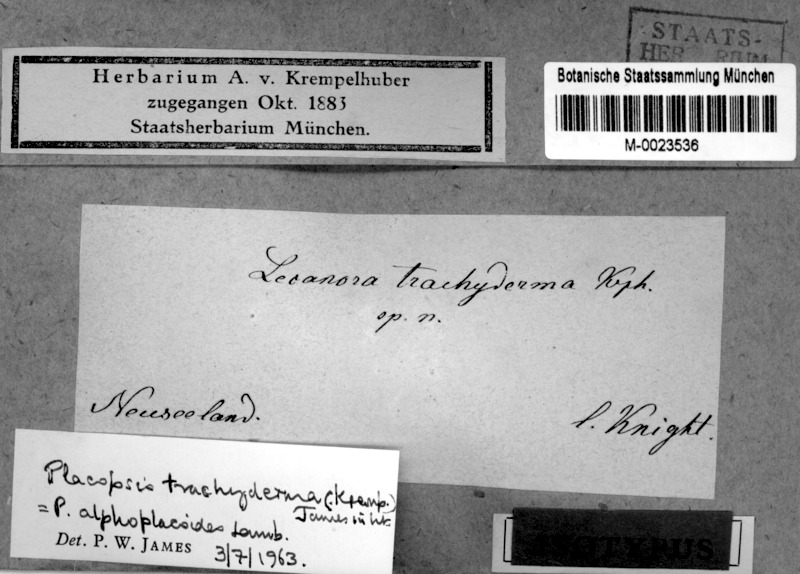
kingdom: Fungi
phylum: Ascomycota
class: Lecanoromycetes
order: Baeomycetales
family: Trapeliaceae
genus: Placopsis
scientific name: Placopsis
